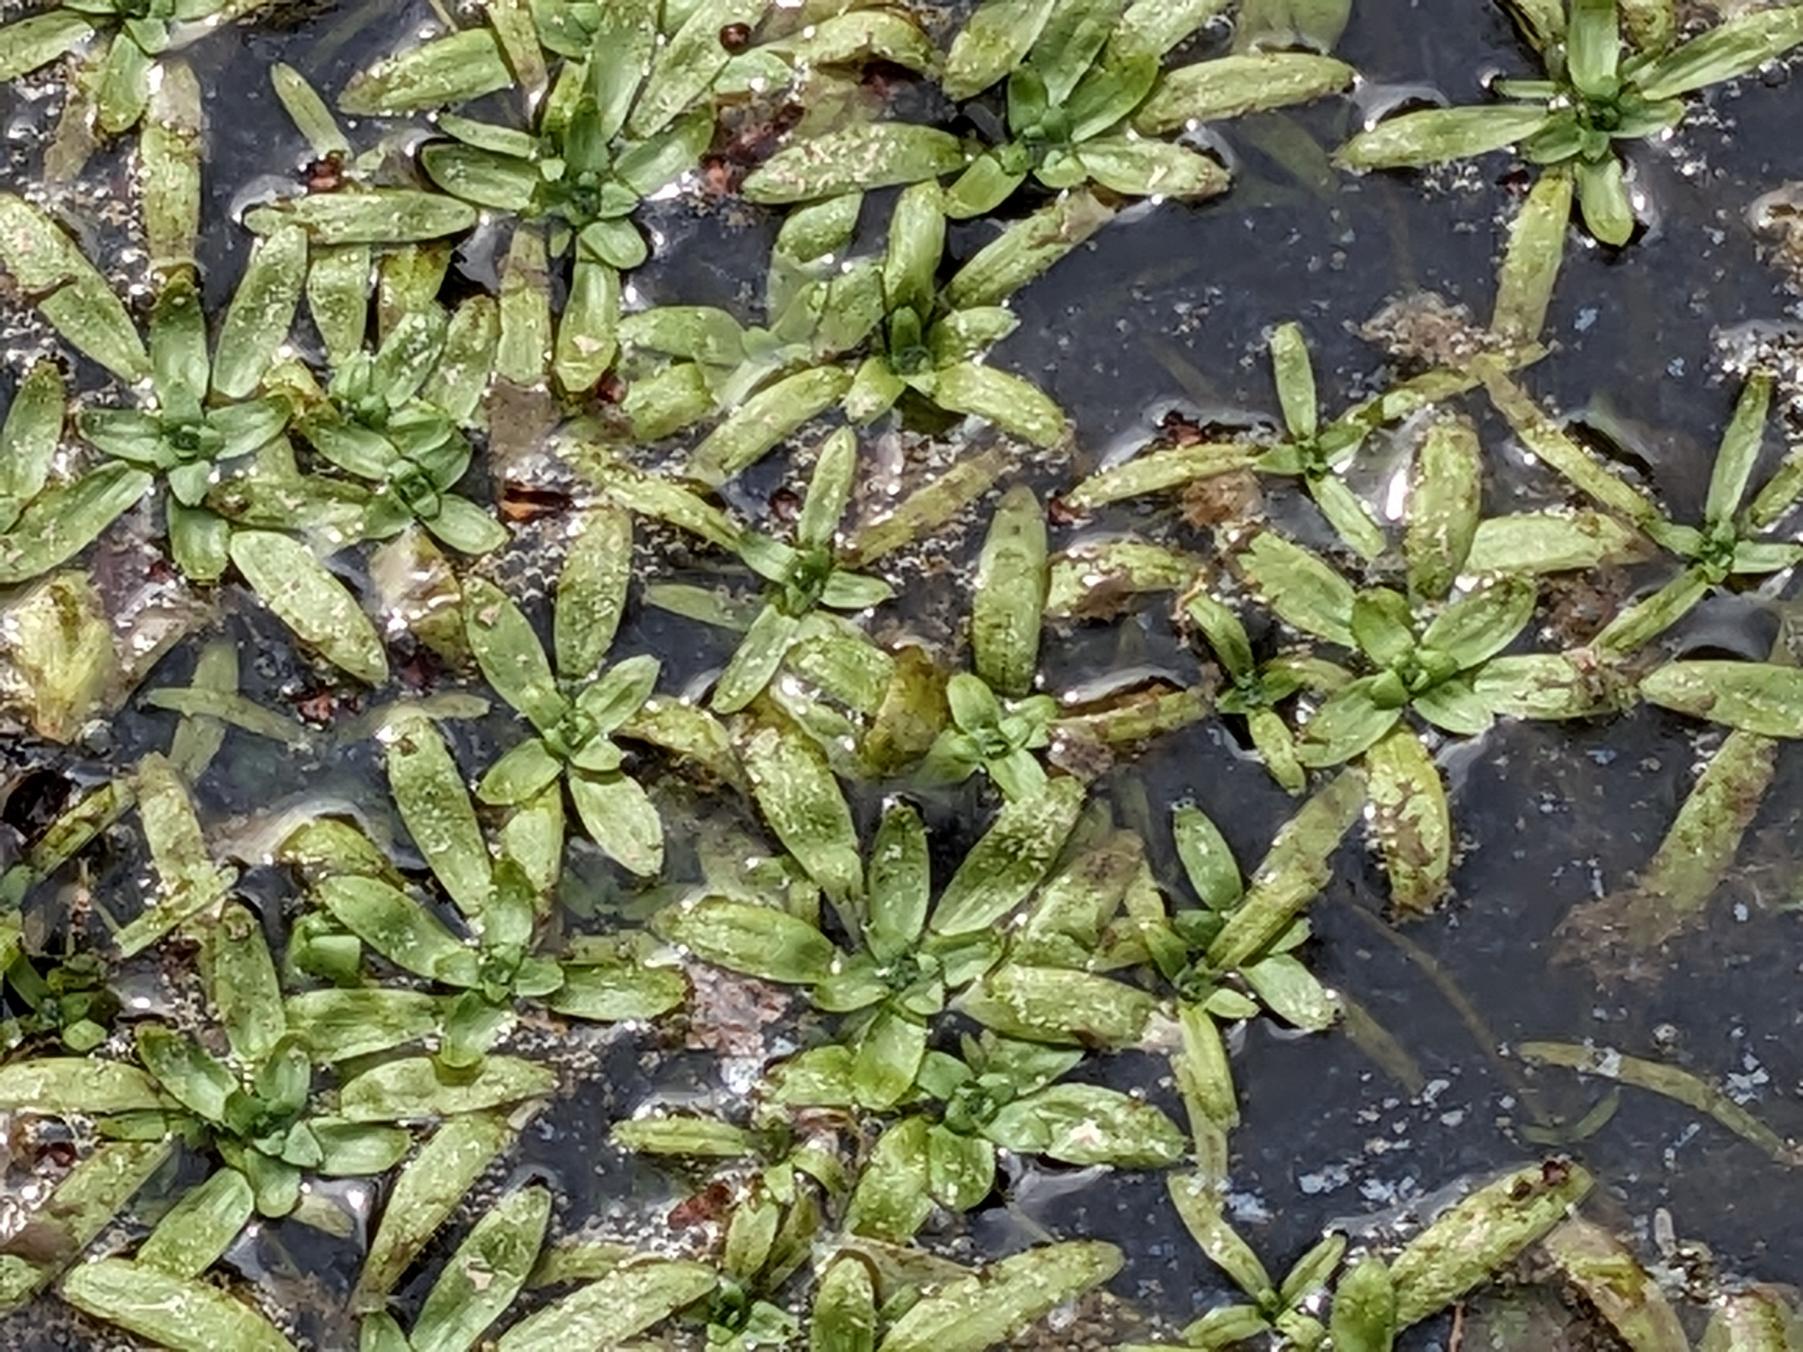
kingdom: Plantae
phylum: Tracheophyta
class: Magnoliopsida
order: Lamiales
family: Plantaginaceae
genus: Callitriche
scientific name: Callitriche
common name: Vandstjerneslægten
